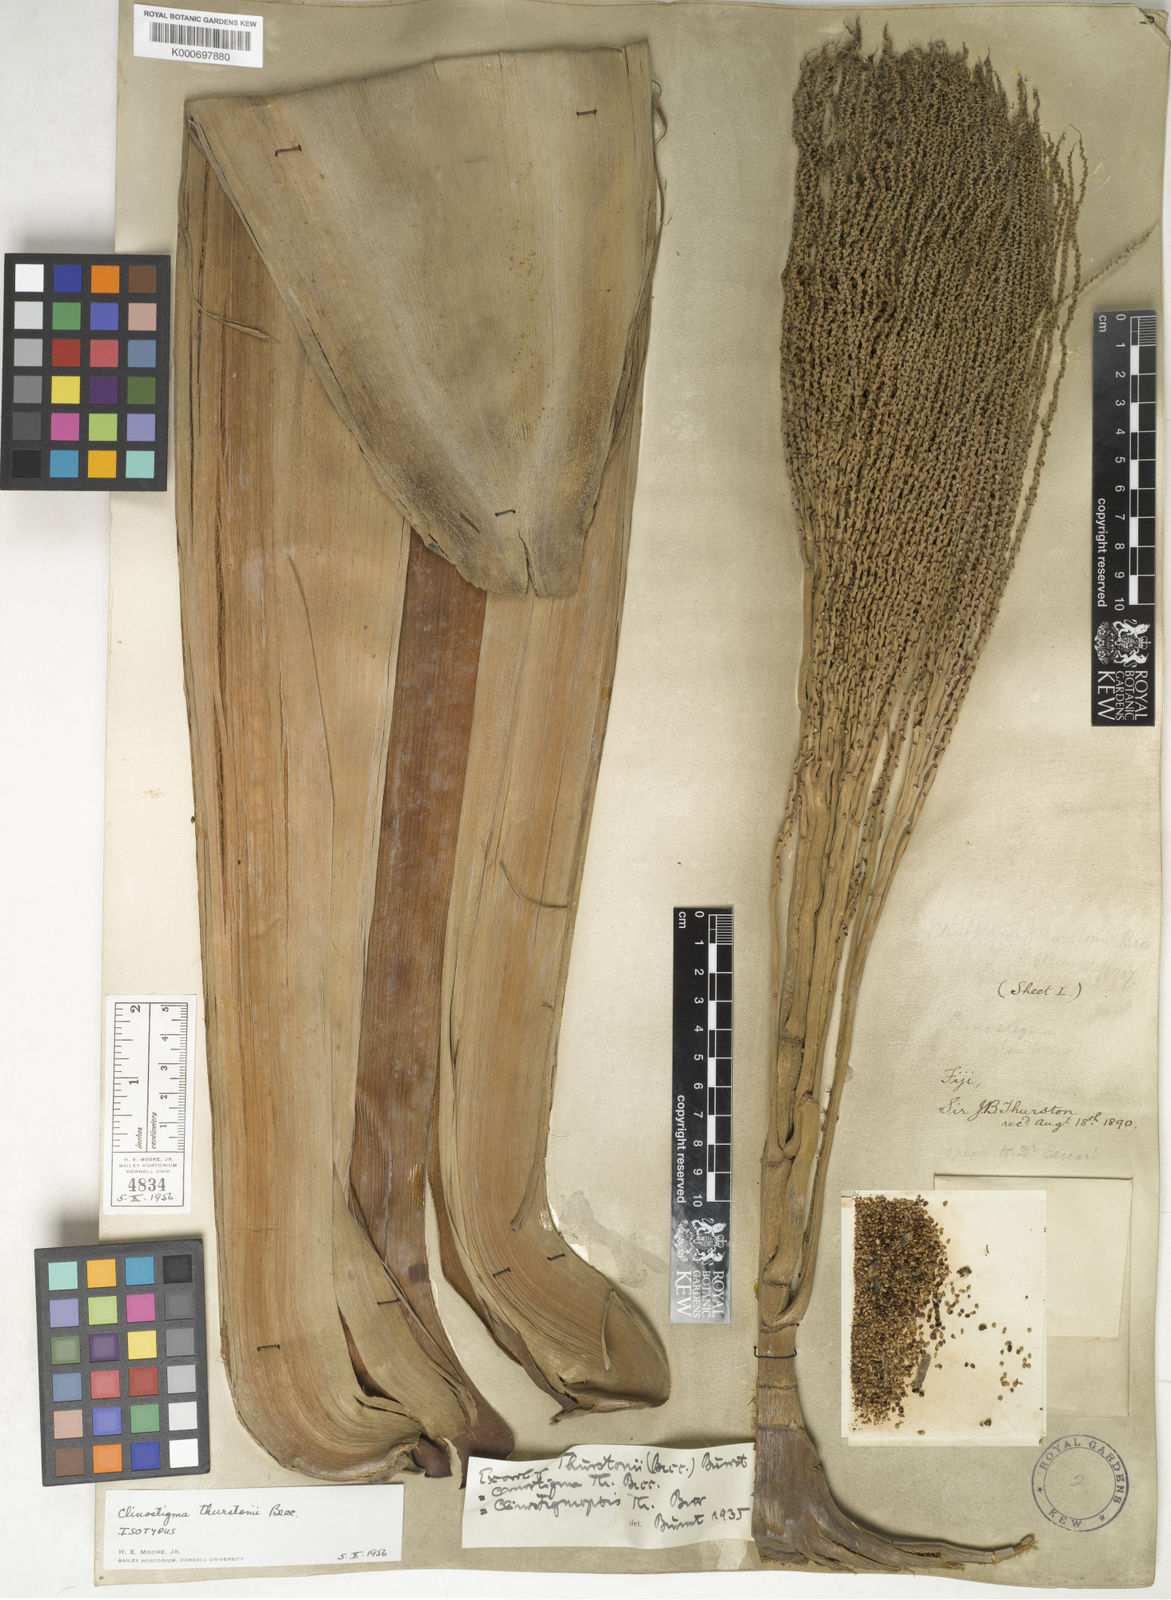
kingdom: Plantae
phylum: Tracheophyta
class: Liliopsida
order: Arecales
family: Arecaceae
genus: Clinostigma
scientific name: Clinostigma exorrhizum
